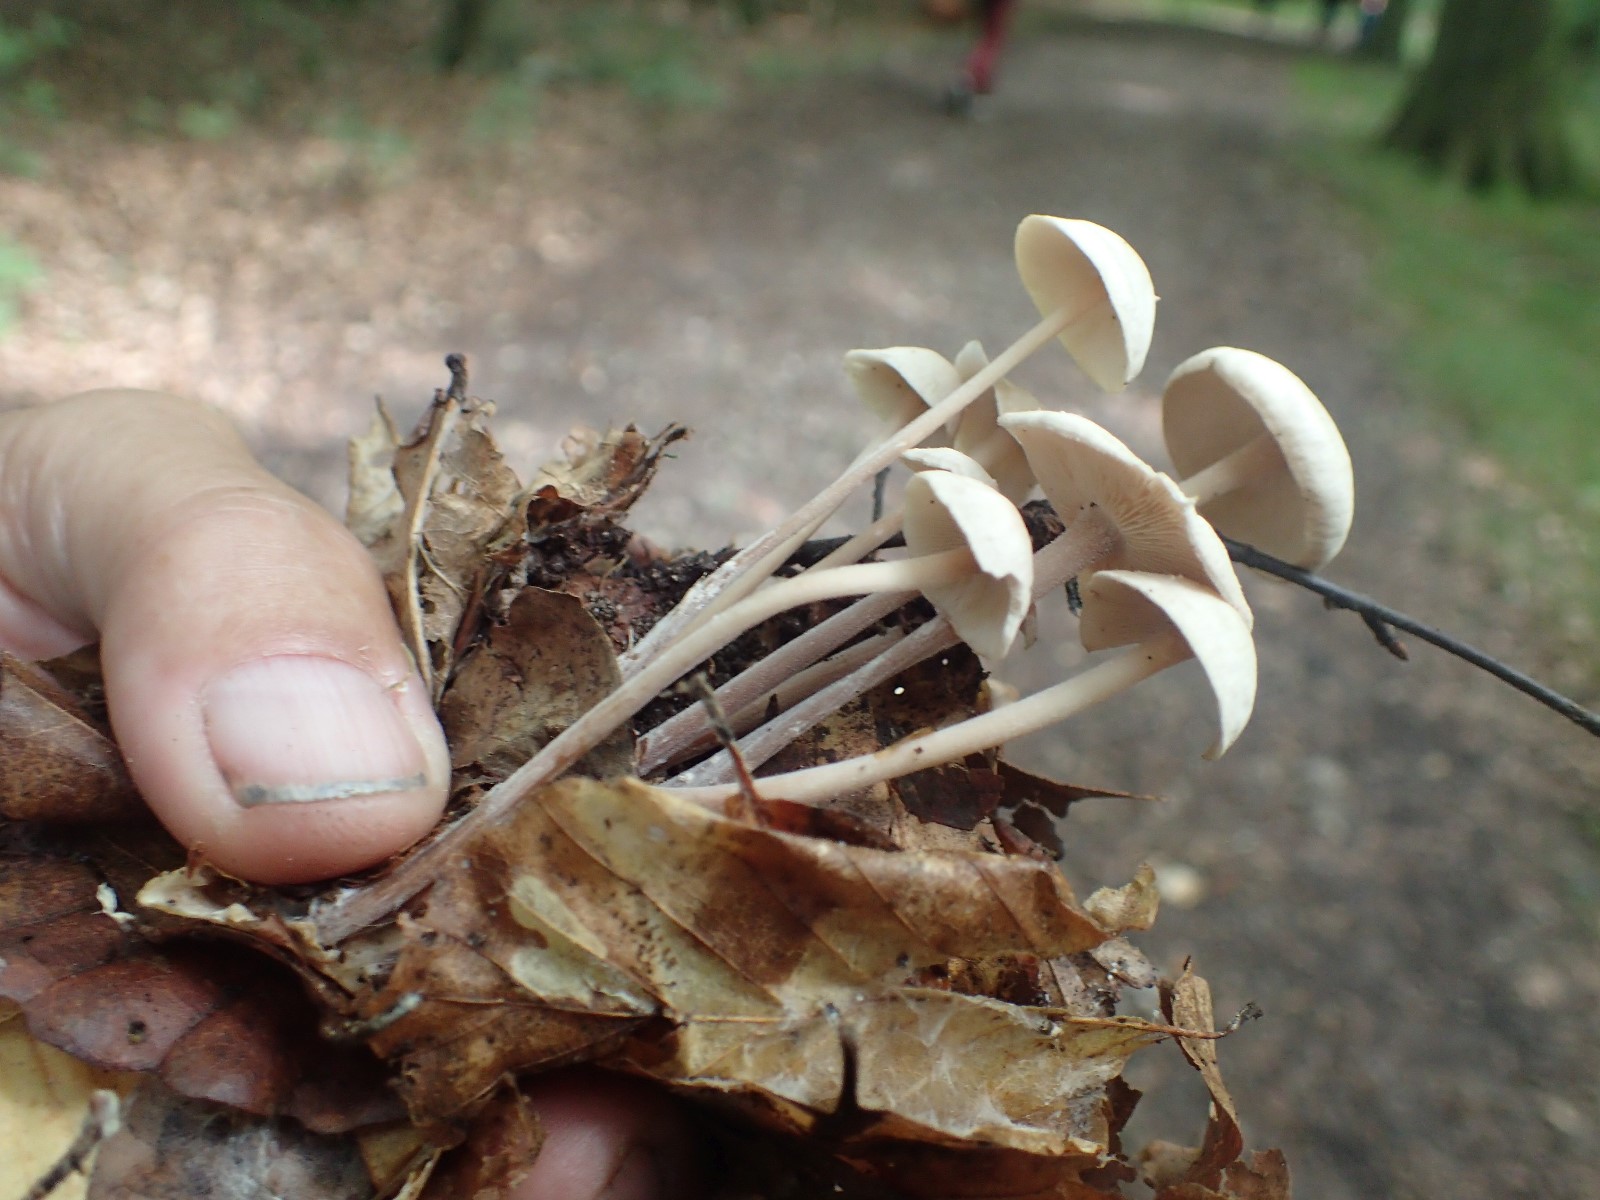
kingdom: Fungi
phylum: Basidiomycota
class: Agaricomycetes
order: Agaricales
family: Omphalotaceae
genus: Collybiopsis
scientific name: Collybiopsis confluens
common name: knippe-fladhat
